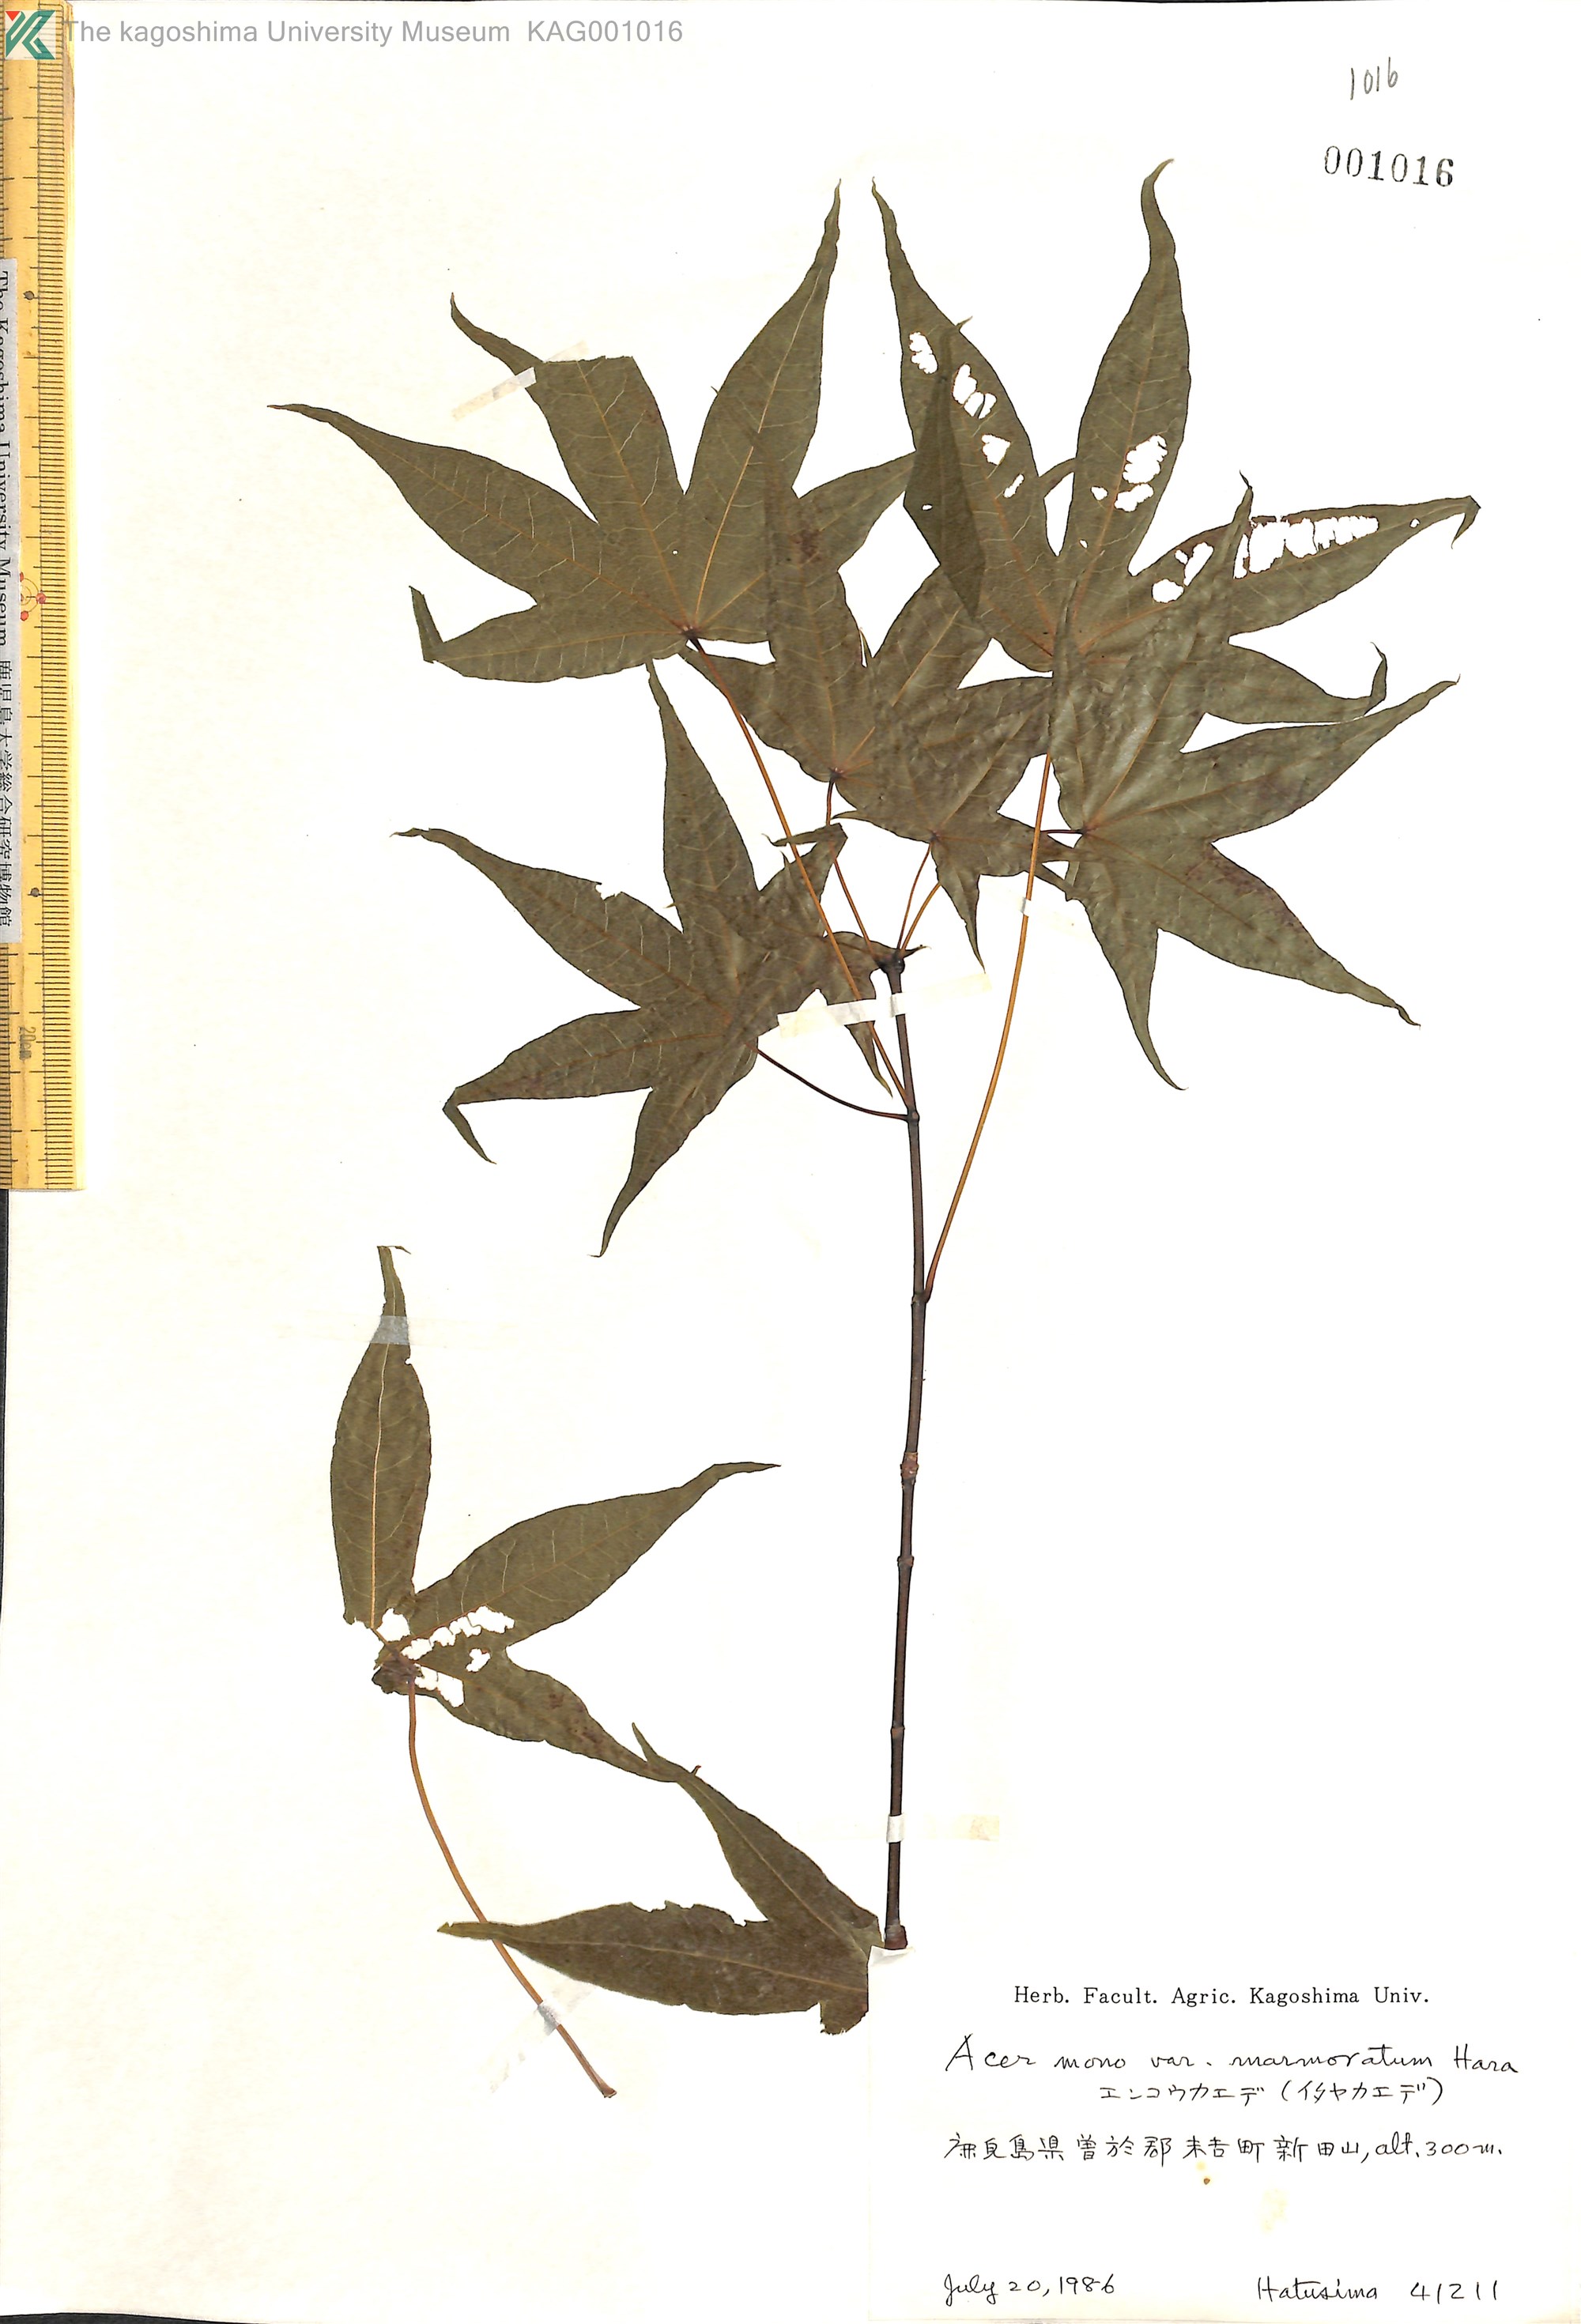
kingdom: Plantae
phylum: Tracheophyta
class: Magnoliopsida
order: Sapindales
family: Sapindaceae
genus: Acer
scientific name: Acer pictum
